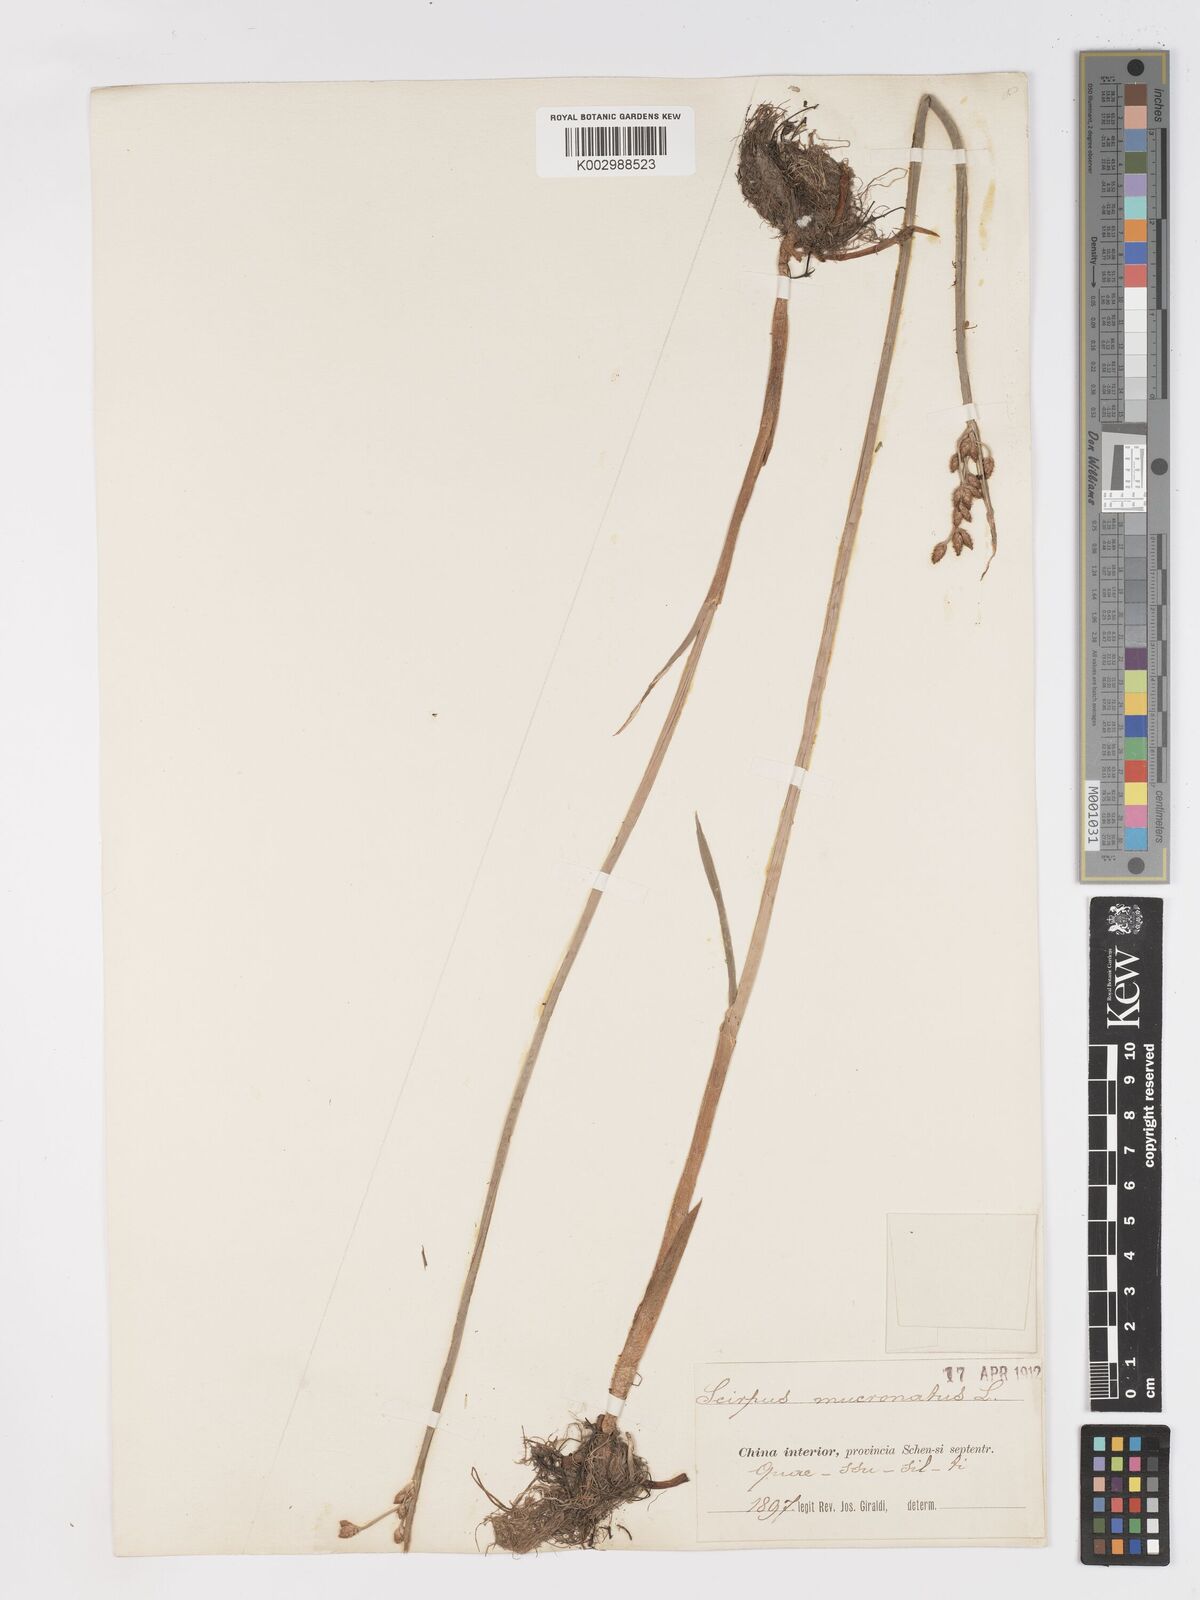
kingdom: Plantae
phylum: Tracheophyta
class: Liliopsida
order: Poales
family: Cyperaceae
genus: Schoenoplectus
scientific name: Schoenoplectus triqueter
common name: Triangular club-rush
